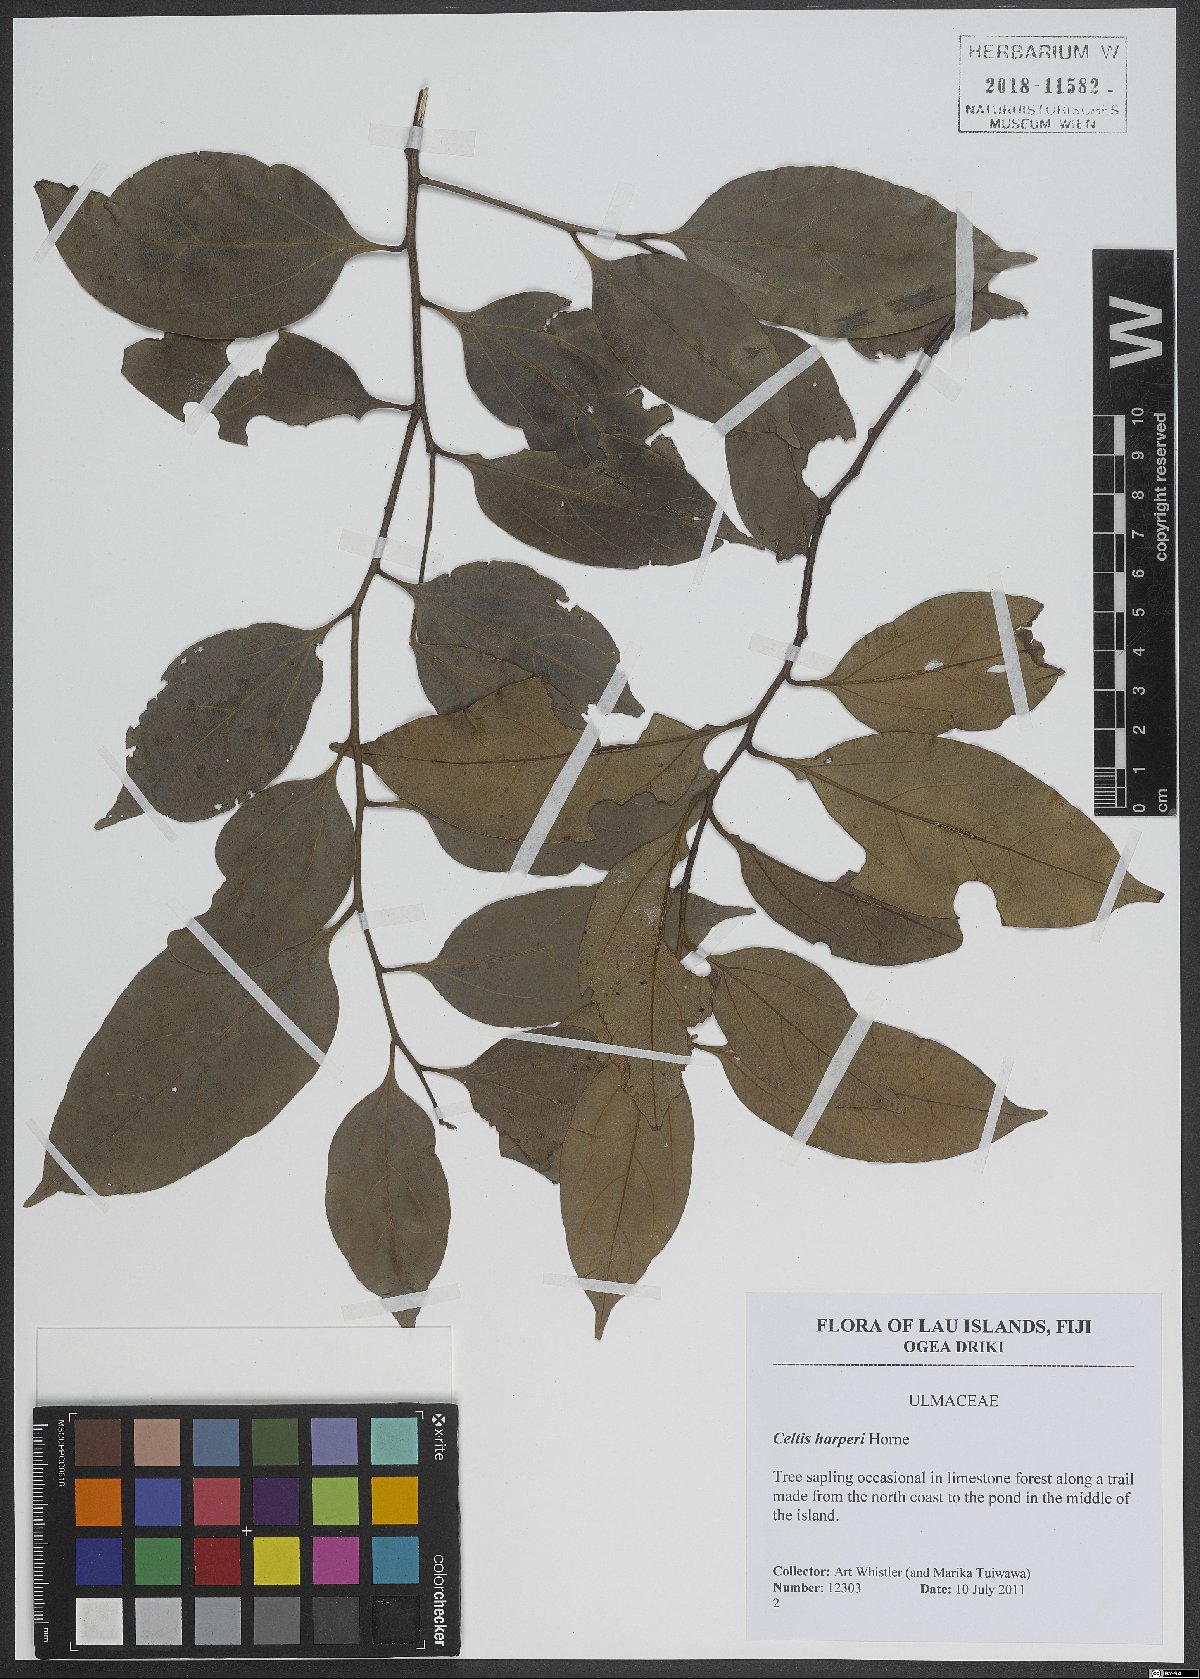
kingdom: Plantae
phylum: Tracheophyta
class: Magnoliopsida
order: Rosales
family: Cannabaceae
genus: Celtis
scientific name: Celtis harperi
